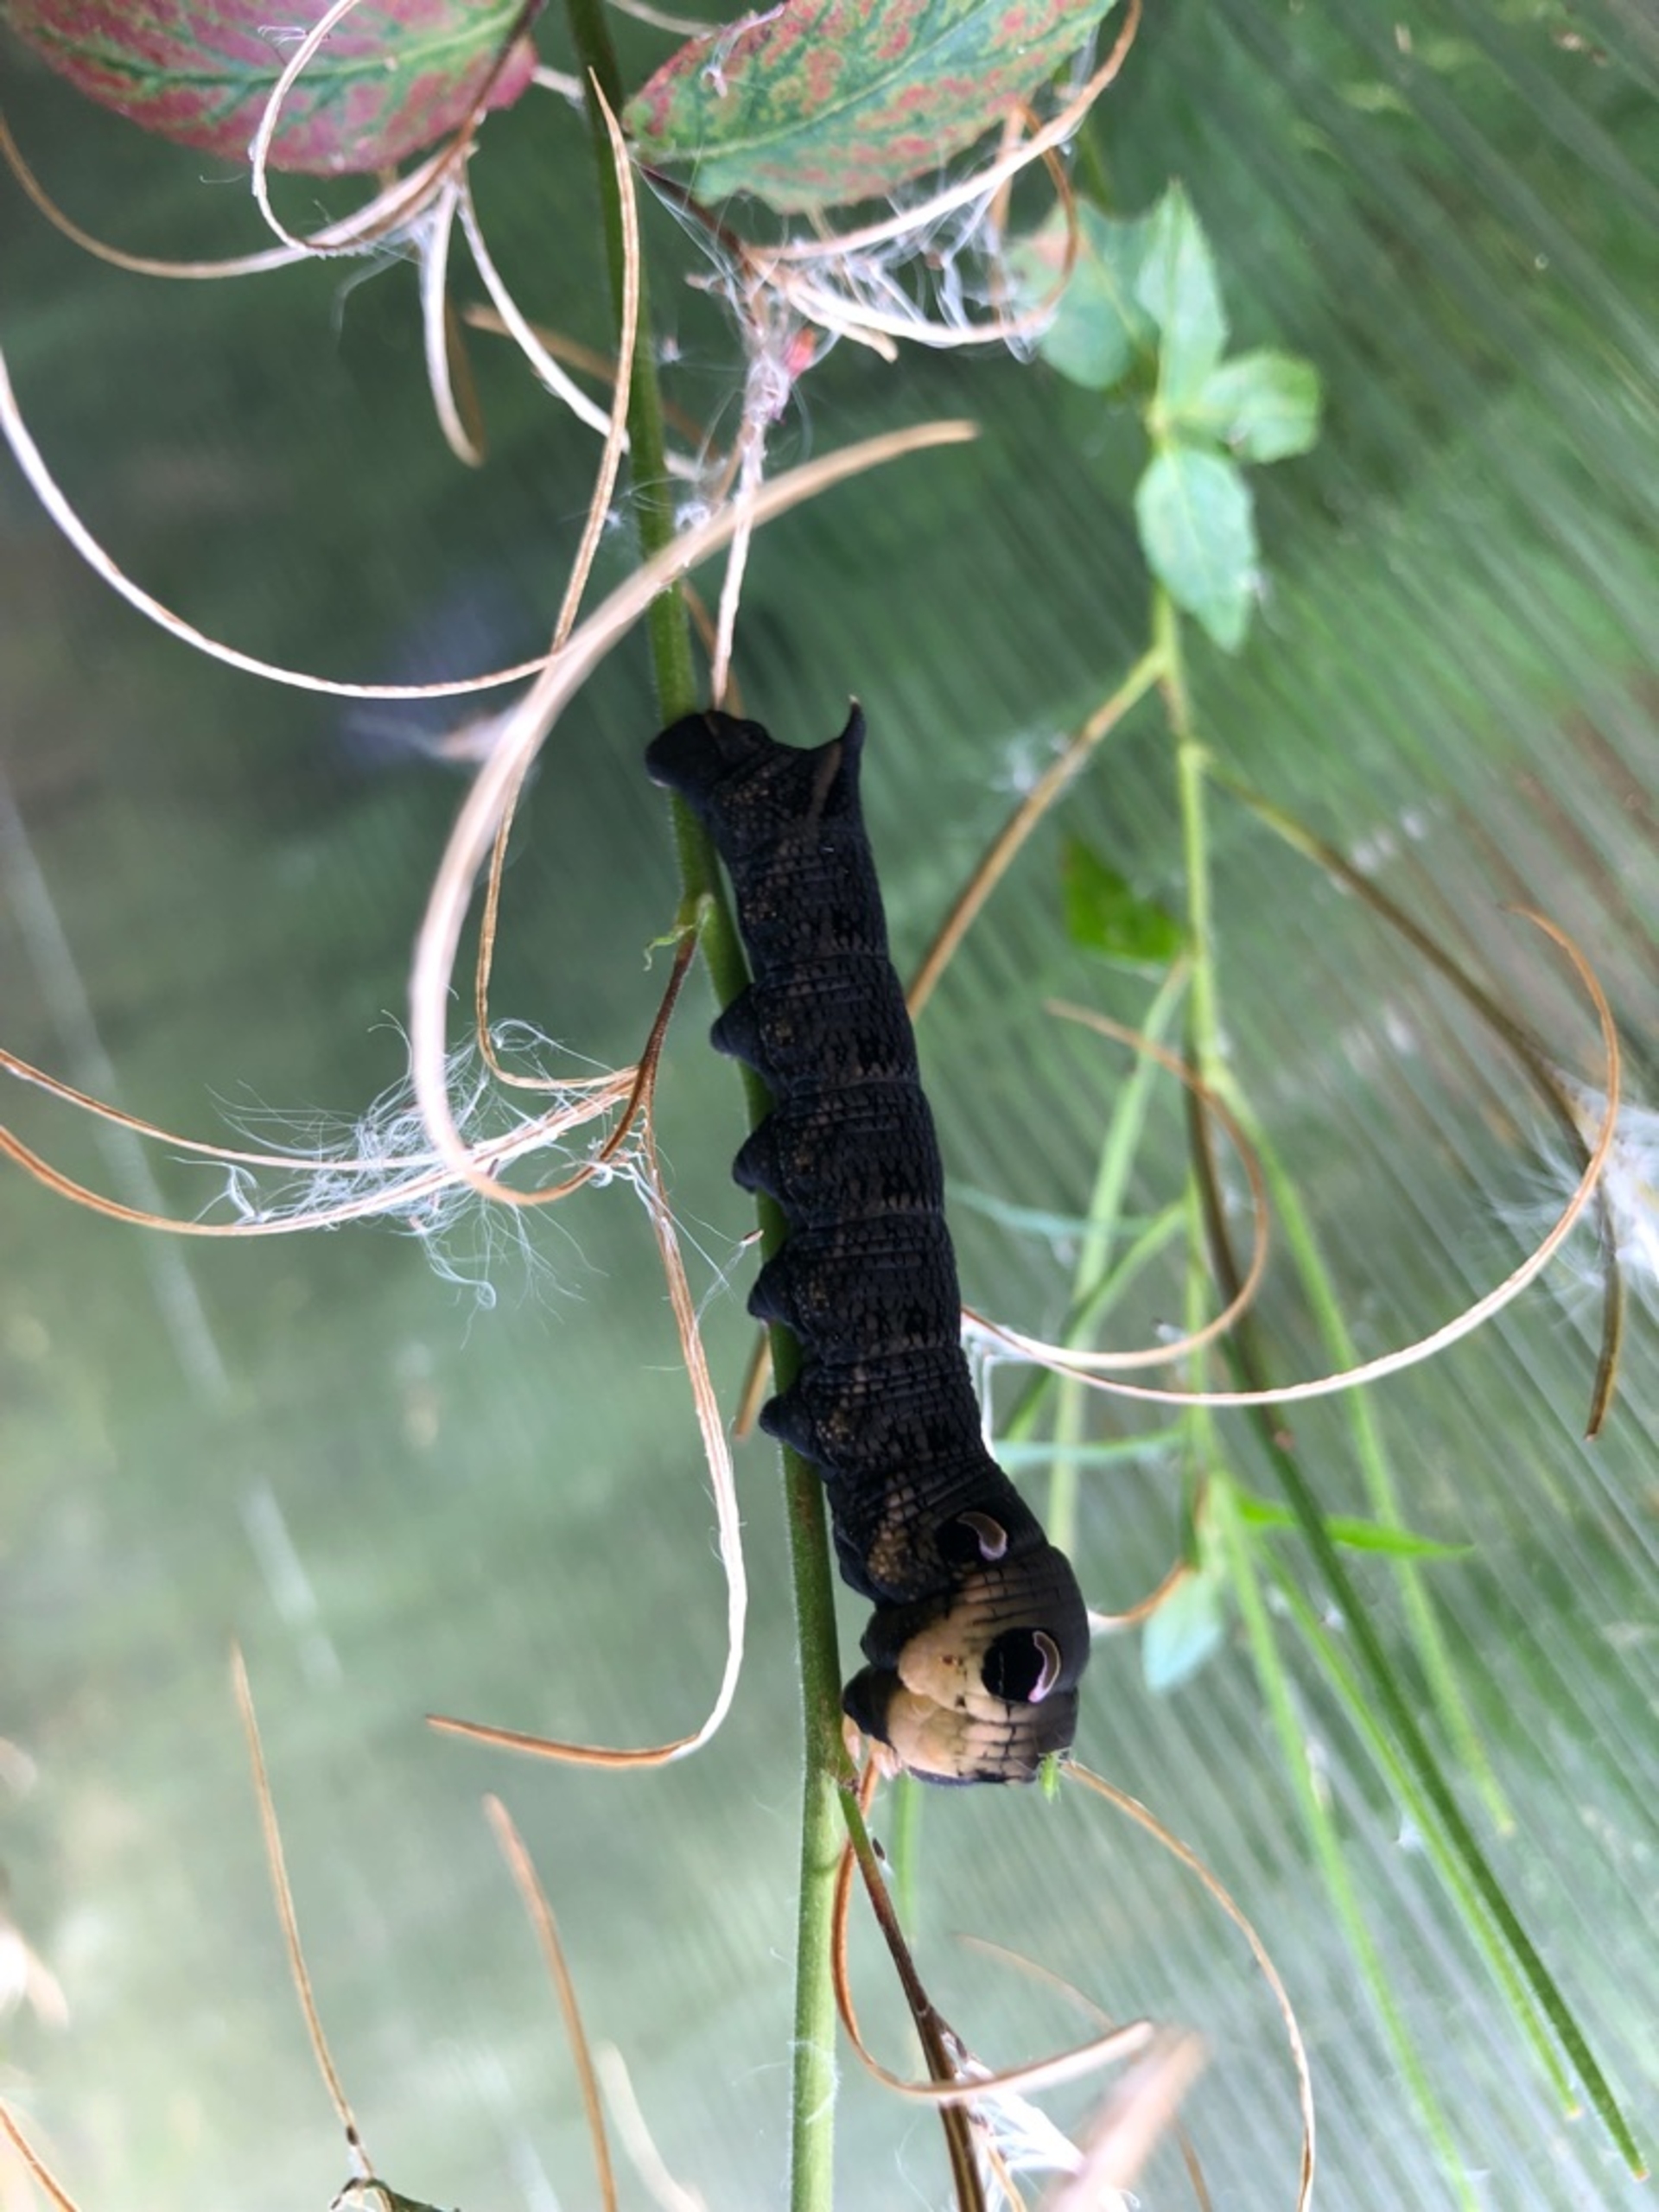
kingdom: Animalia
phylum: Arthropoda
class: Insecta
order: Lepidoptera
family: Sphingidae
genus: Deilephila
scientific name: Deilephila elpenor
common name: Dueurtsværmer
